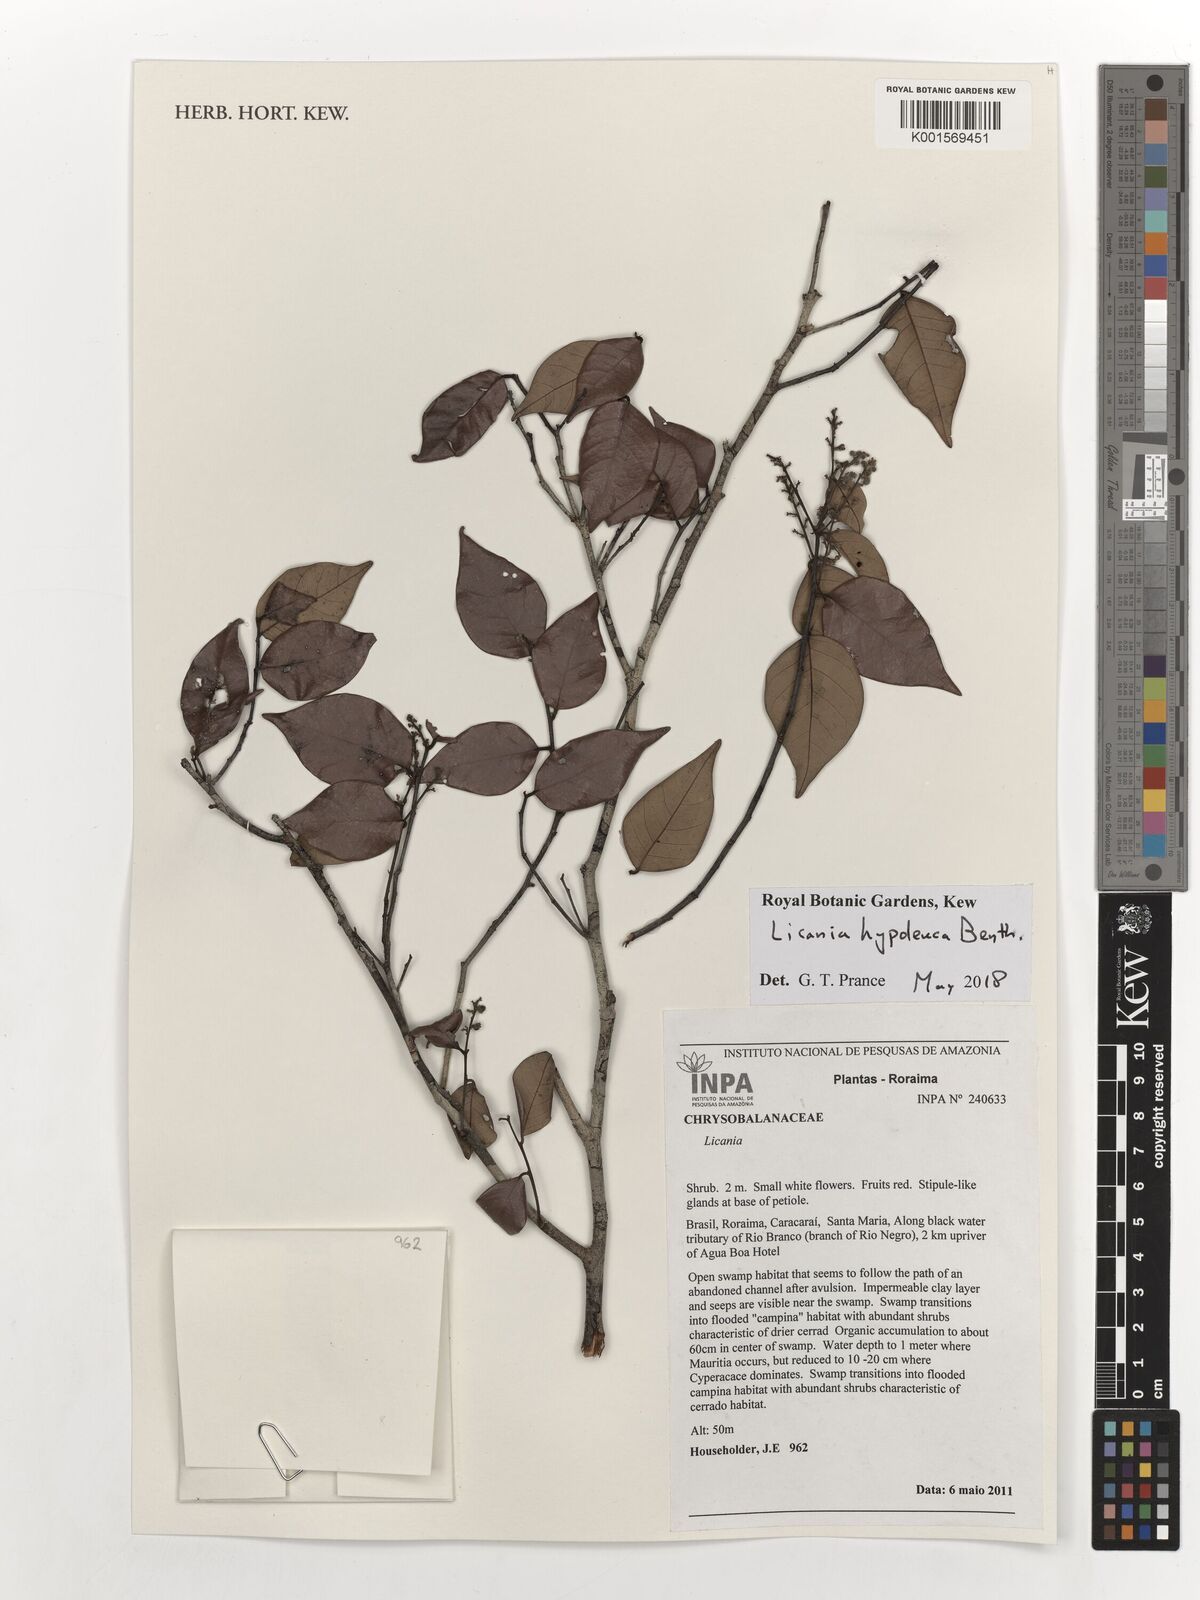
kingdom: Plantae
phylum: Tracheophyta
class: Magnoliopsida
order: Malpighiales
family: Chrysobalanaceae
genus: Licania
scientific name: Licania hypoleuca
